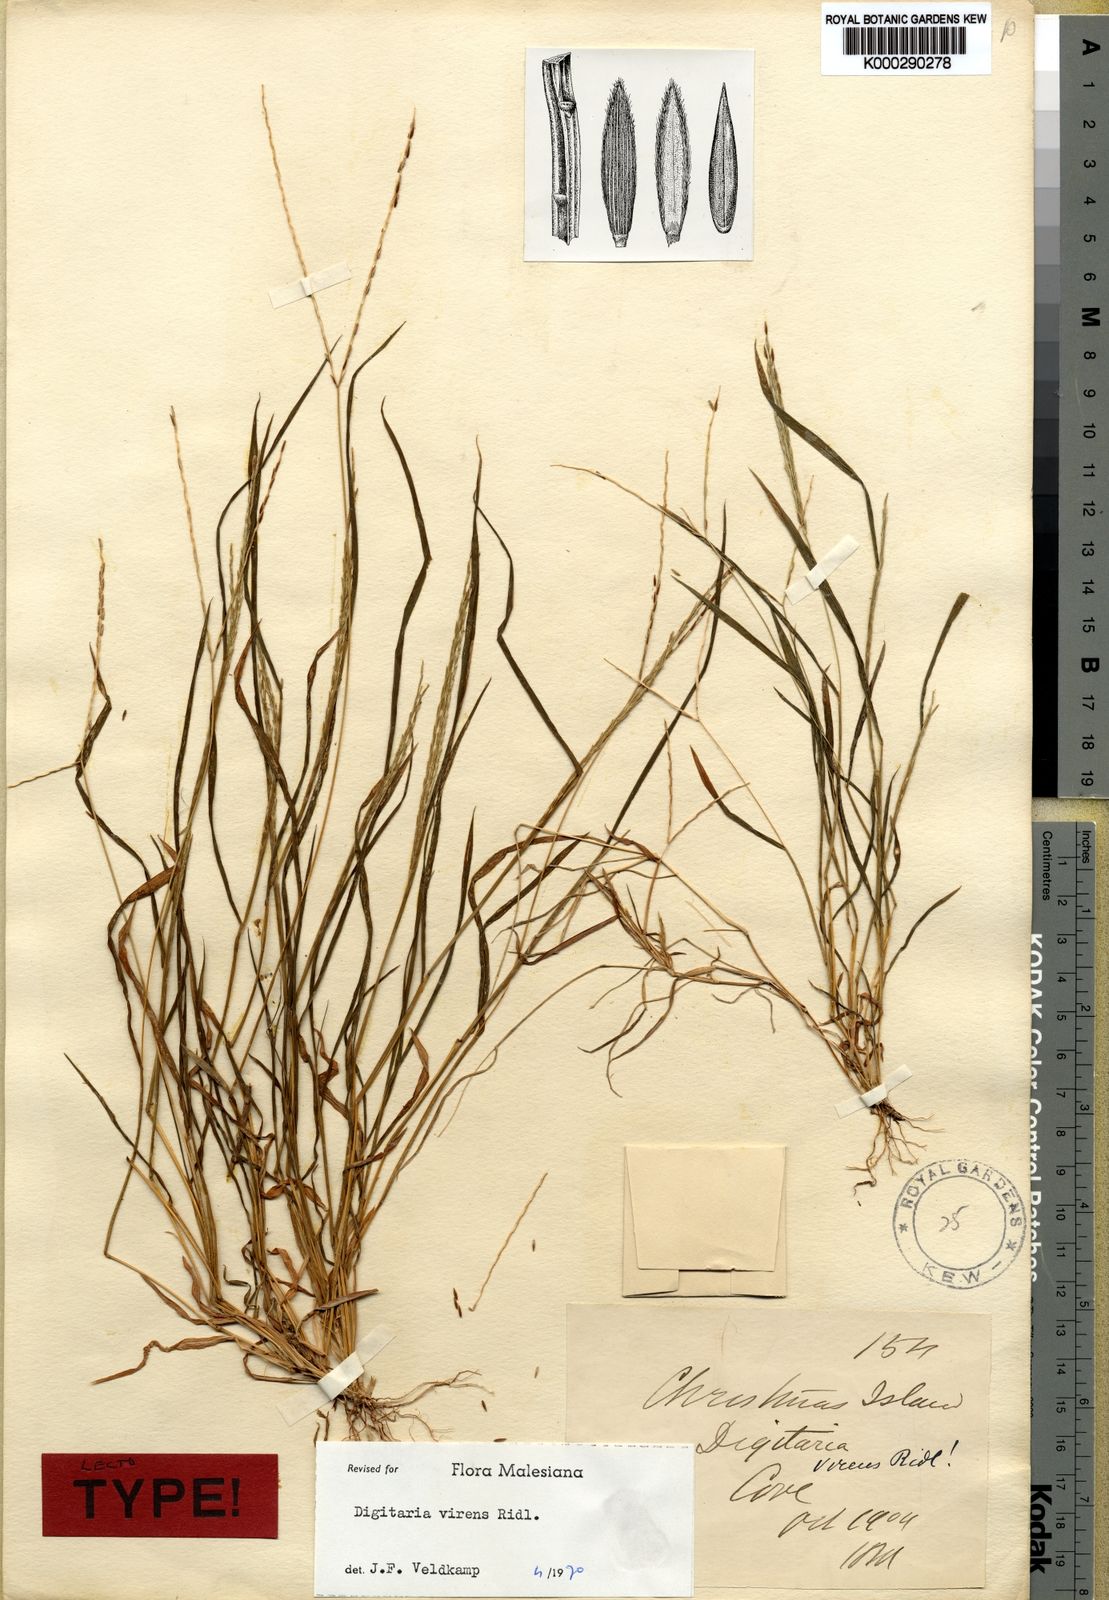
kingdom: Plantae
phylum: Tracheophyta
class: Liliopsida
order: Poales
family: Poaceae
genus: Digitaria
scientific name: Digitaria mariannensis
